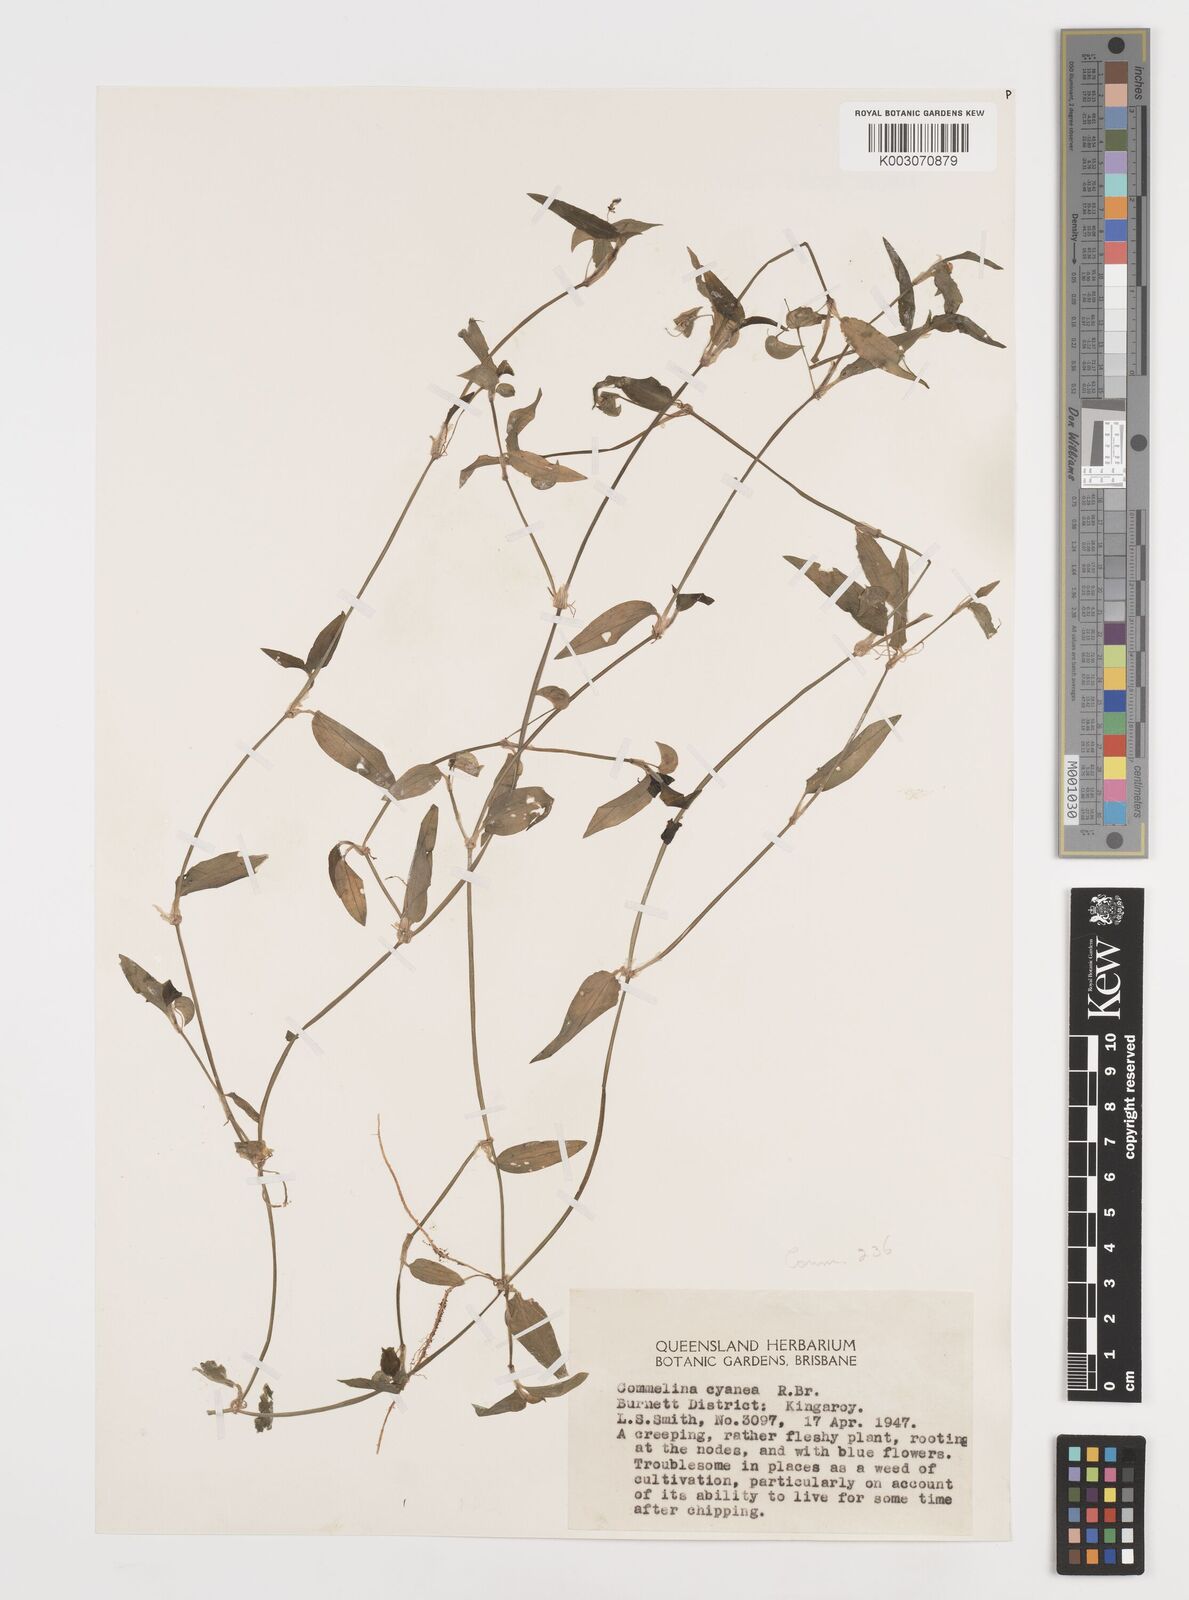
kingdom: Plantae
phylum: Tracheophyta
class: Liliopsida
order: Commelinales
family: Commelinaceae
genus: Commelina
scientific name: Commelina cyanea
